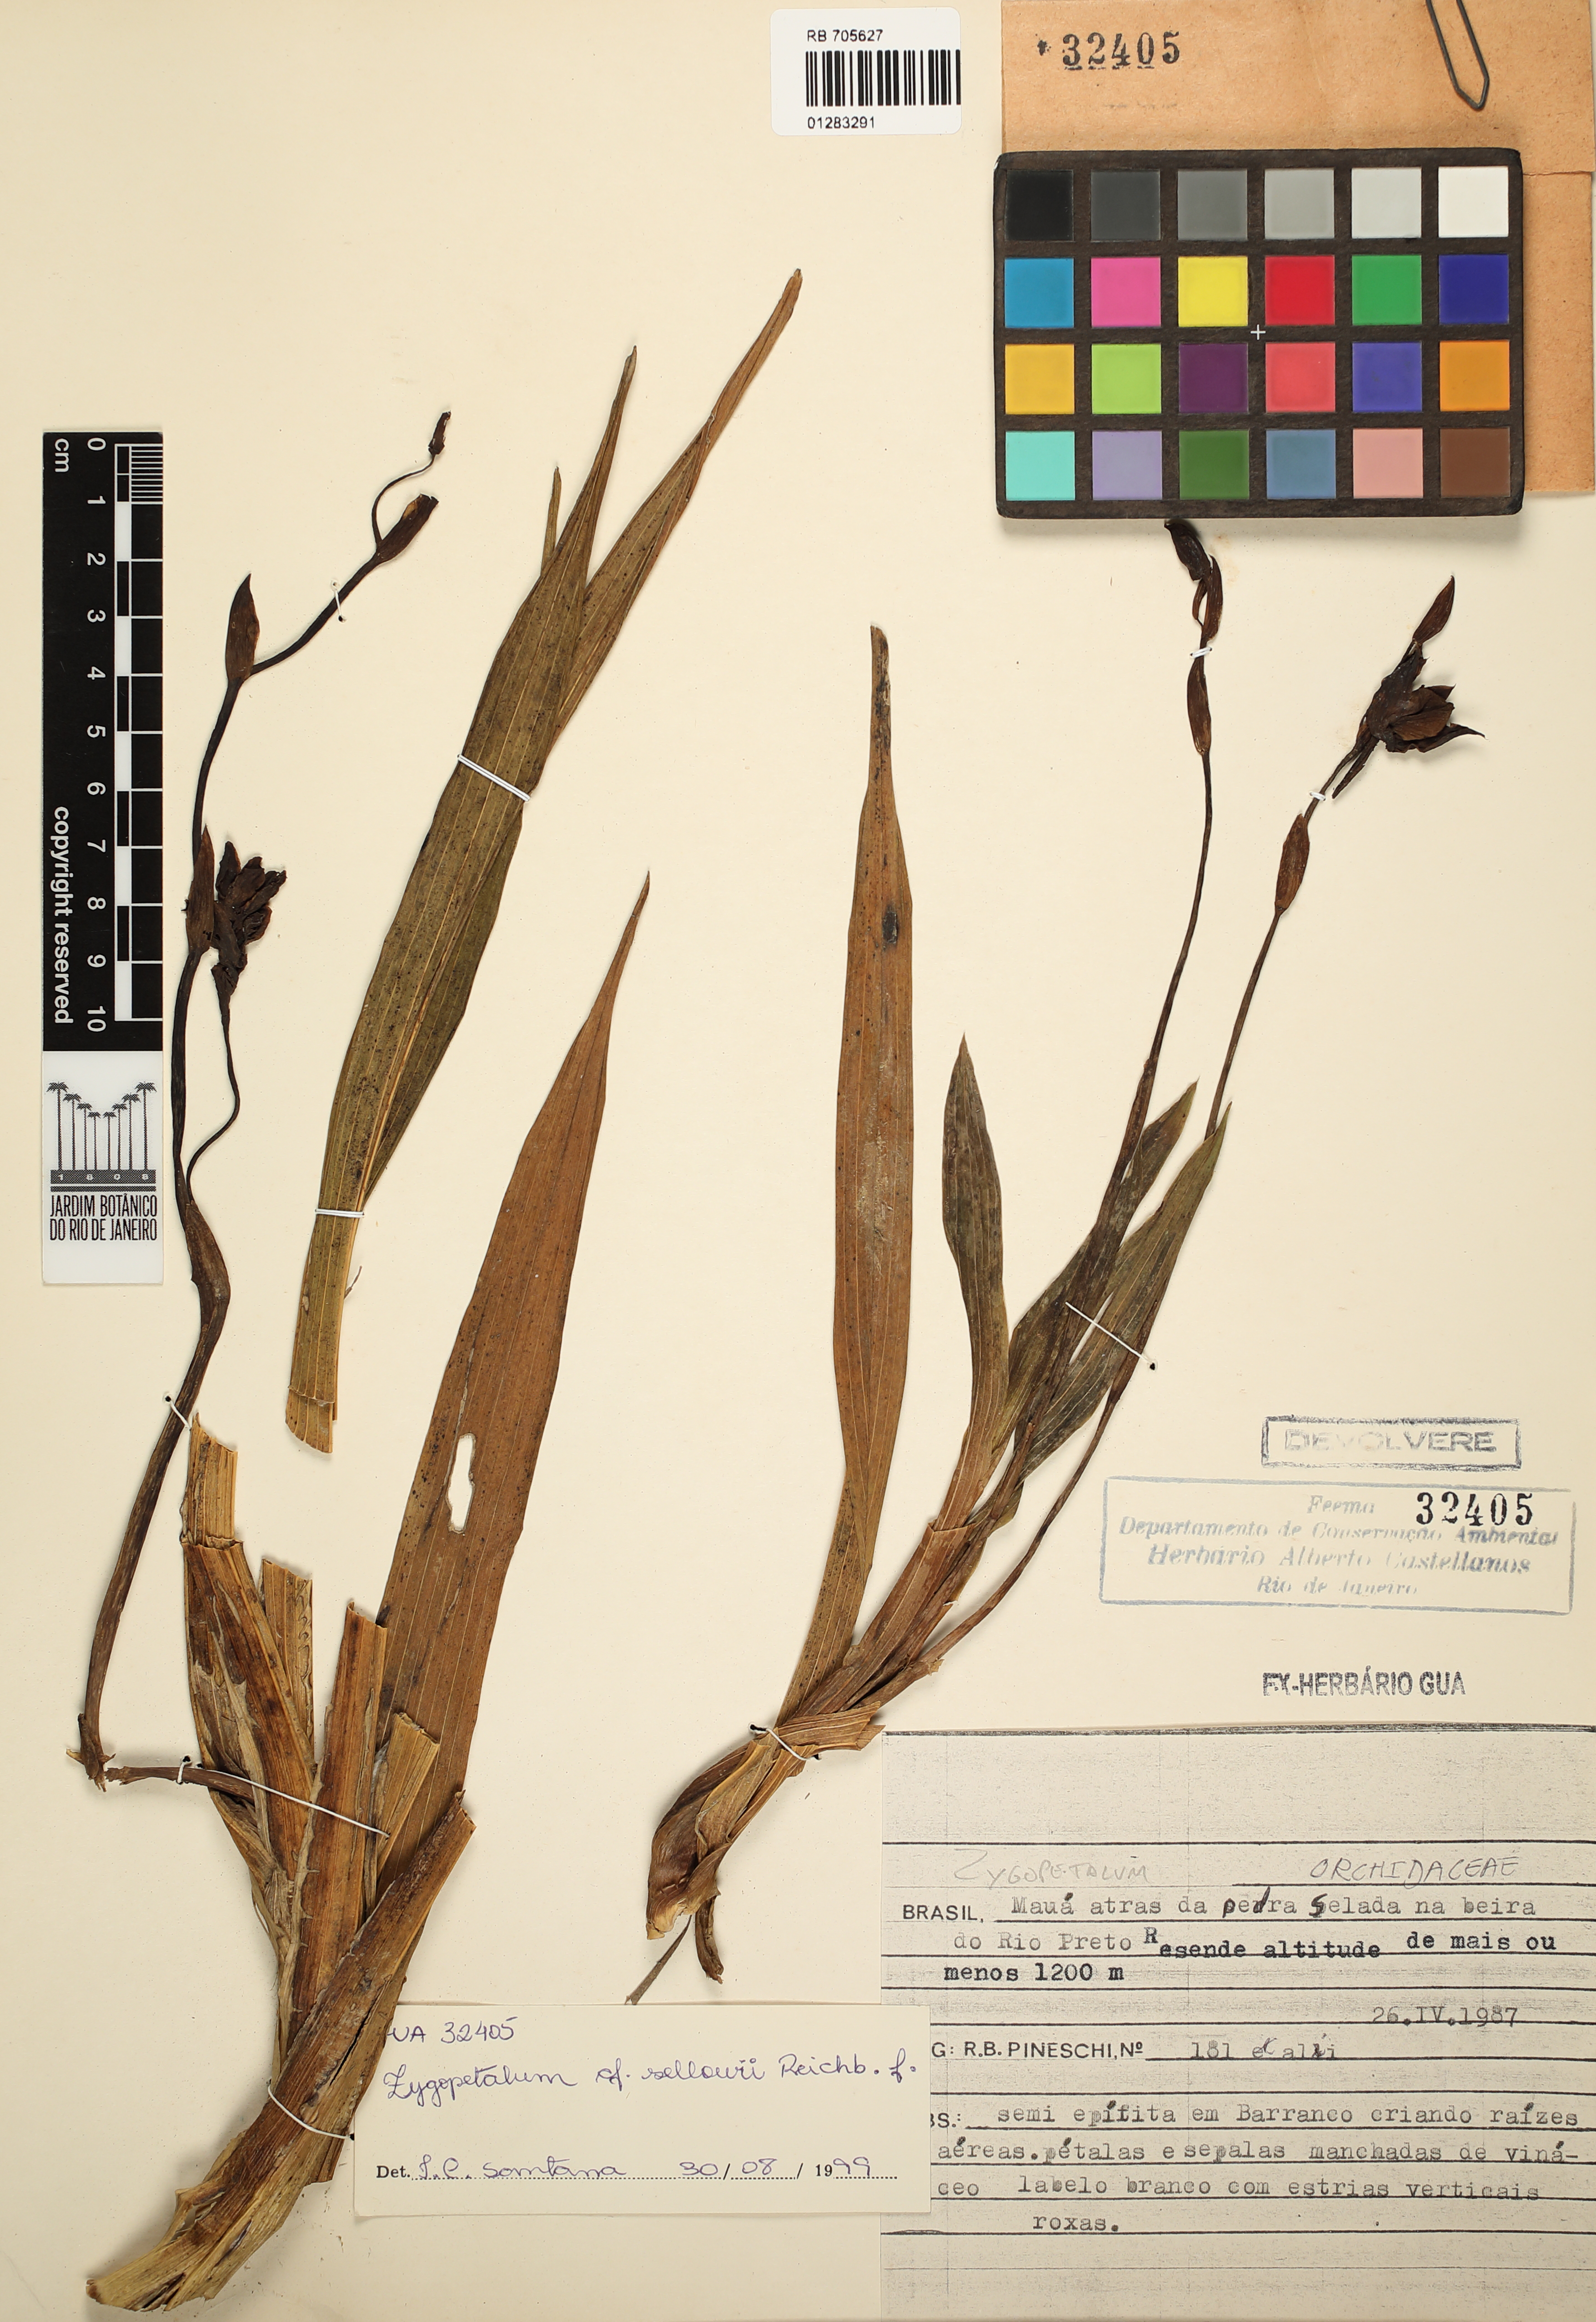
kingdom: Plantae
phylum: Tracheophyta
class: Liliopsida
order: Asparagales
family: Orchidaceae
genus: Zygopetalum
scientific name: Zygopetalum sellowii
